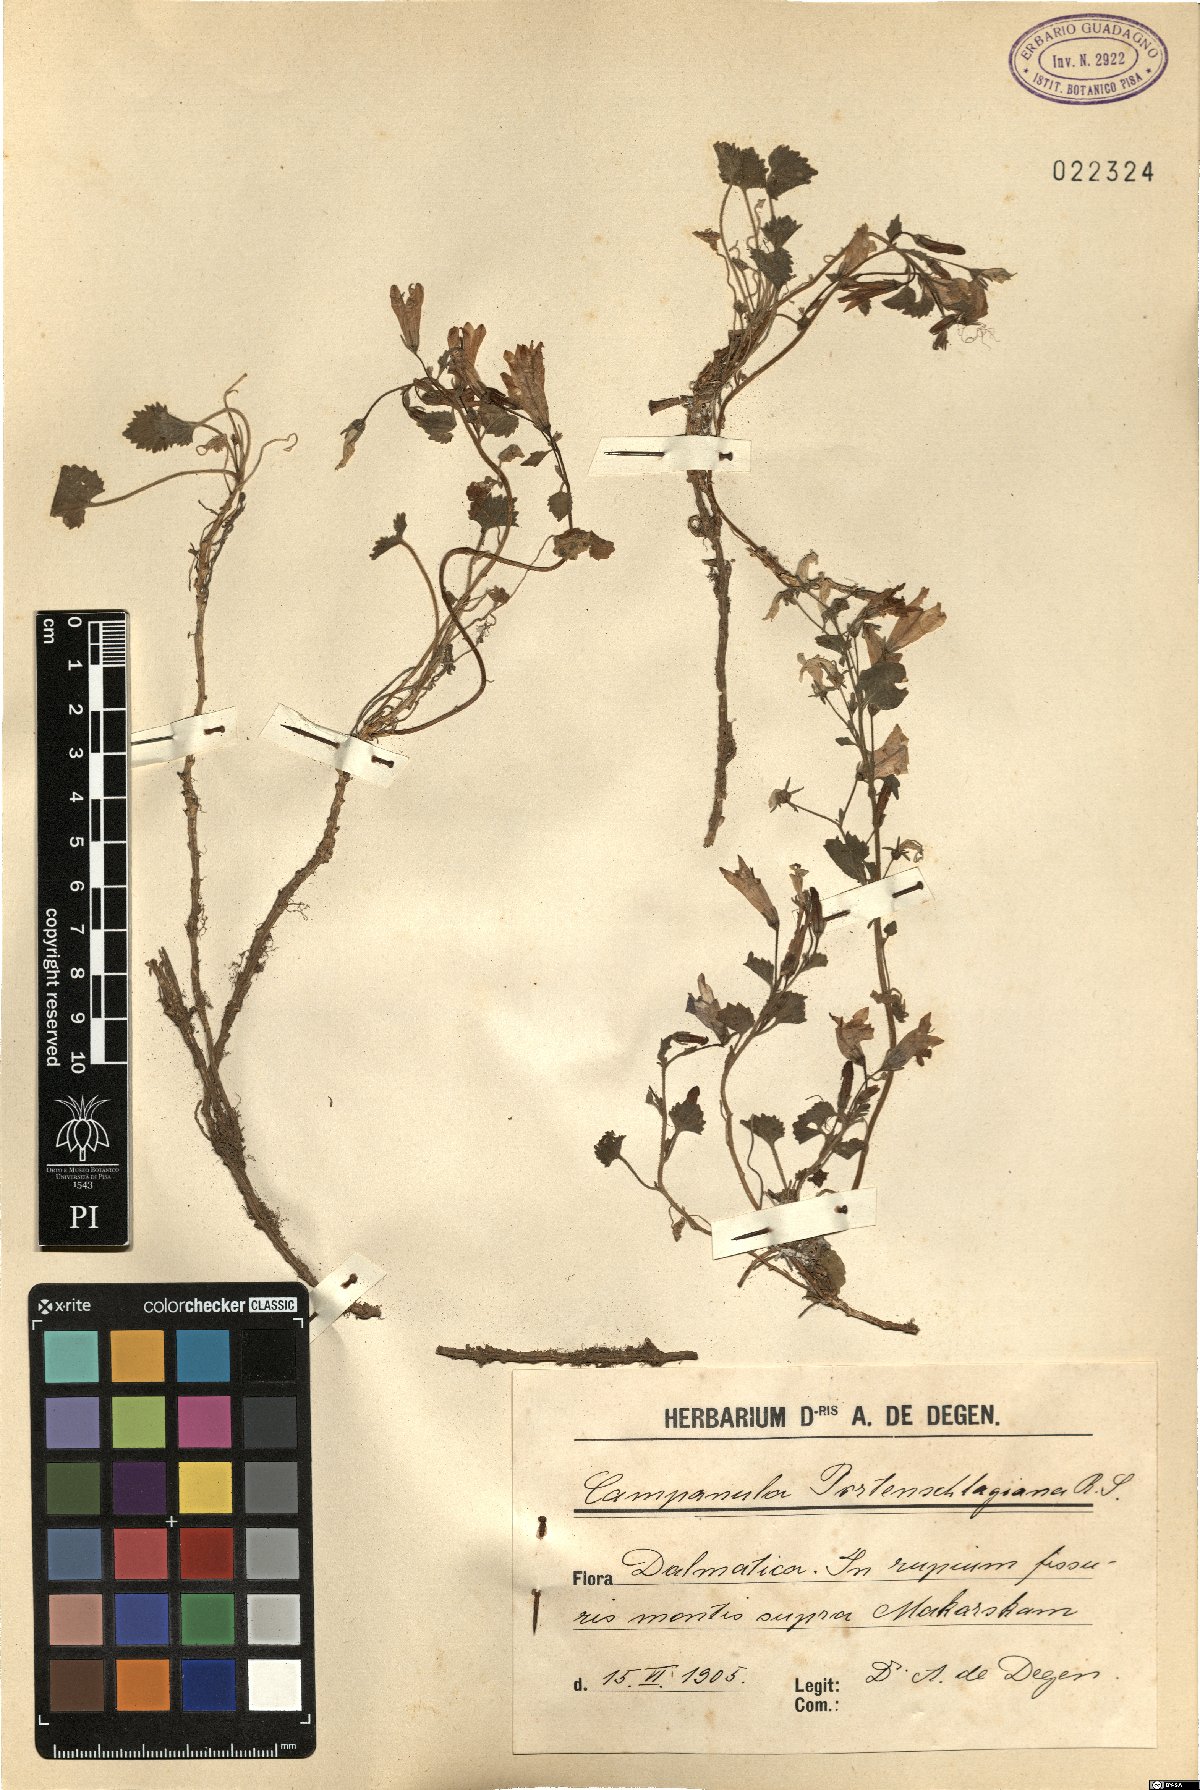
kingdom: Plantae
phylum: Tracheophyta
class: Magnoliopsida
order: Asterales
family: Campanulaceae
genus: Campanula
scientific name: Campanula portenschlagiana
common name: Adria bellflower
